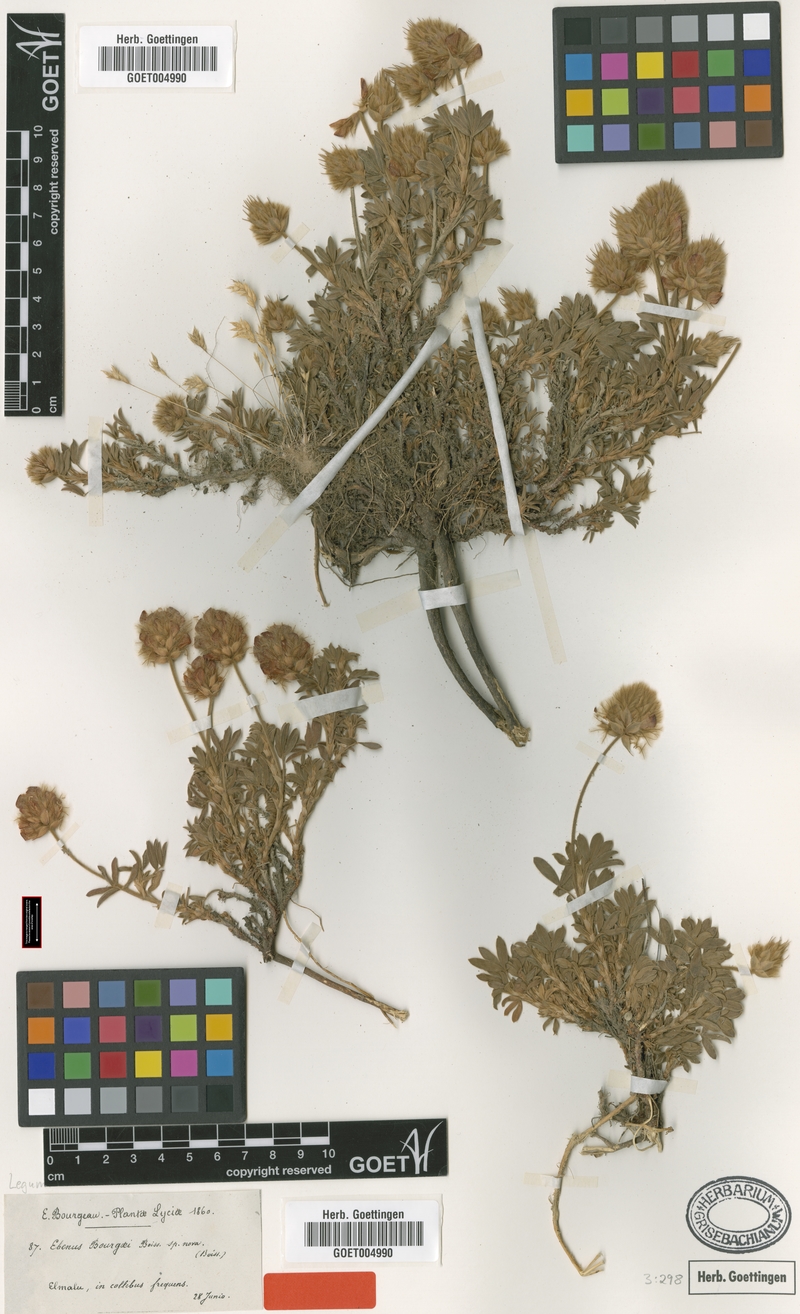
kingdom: Plantae
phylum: Tracheophyta
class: Magnoliopsida
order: Fabales
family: Fabaceae
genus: Ebenus
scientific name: Ebenus bourgaei
